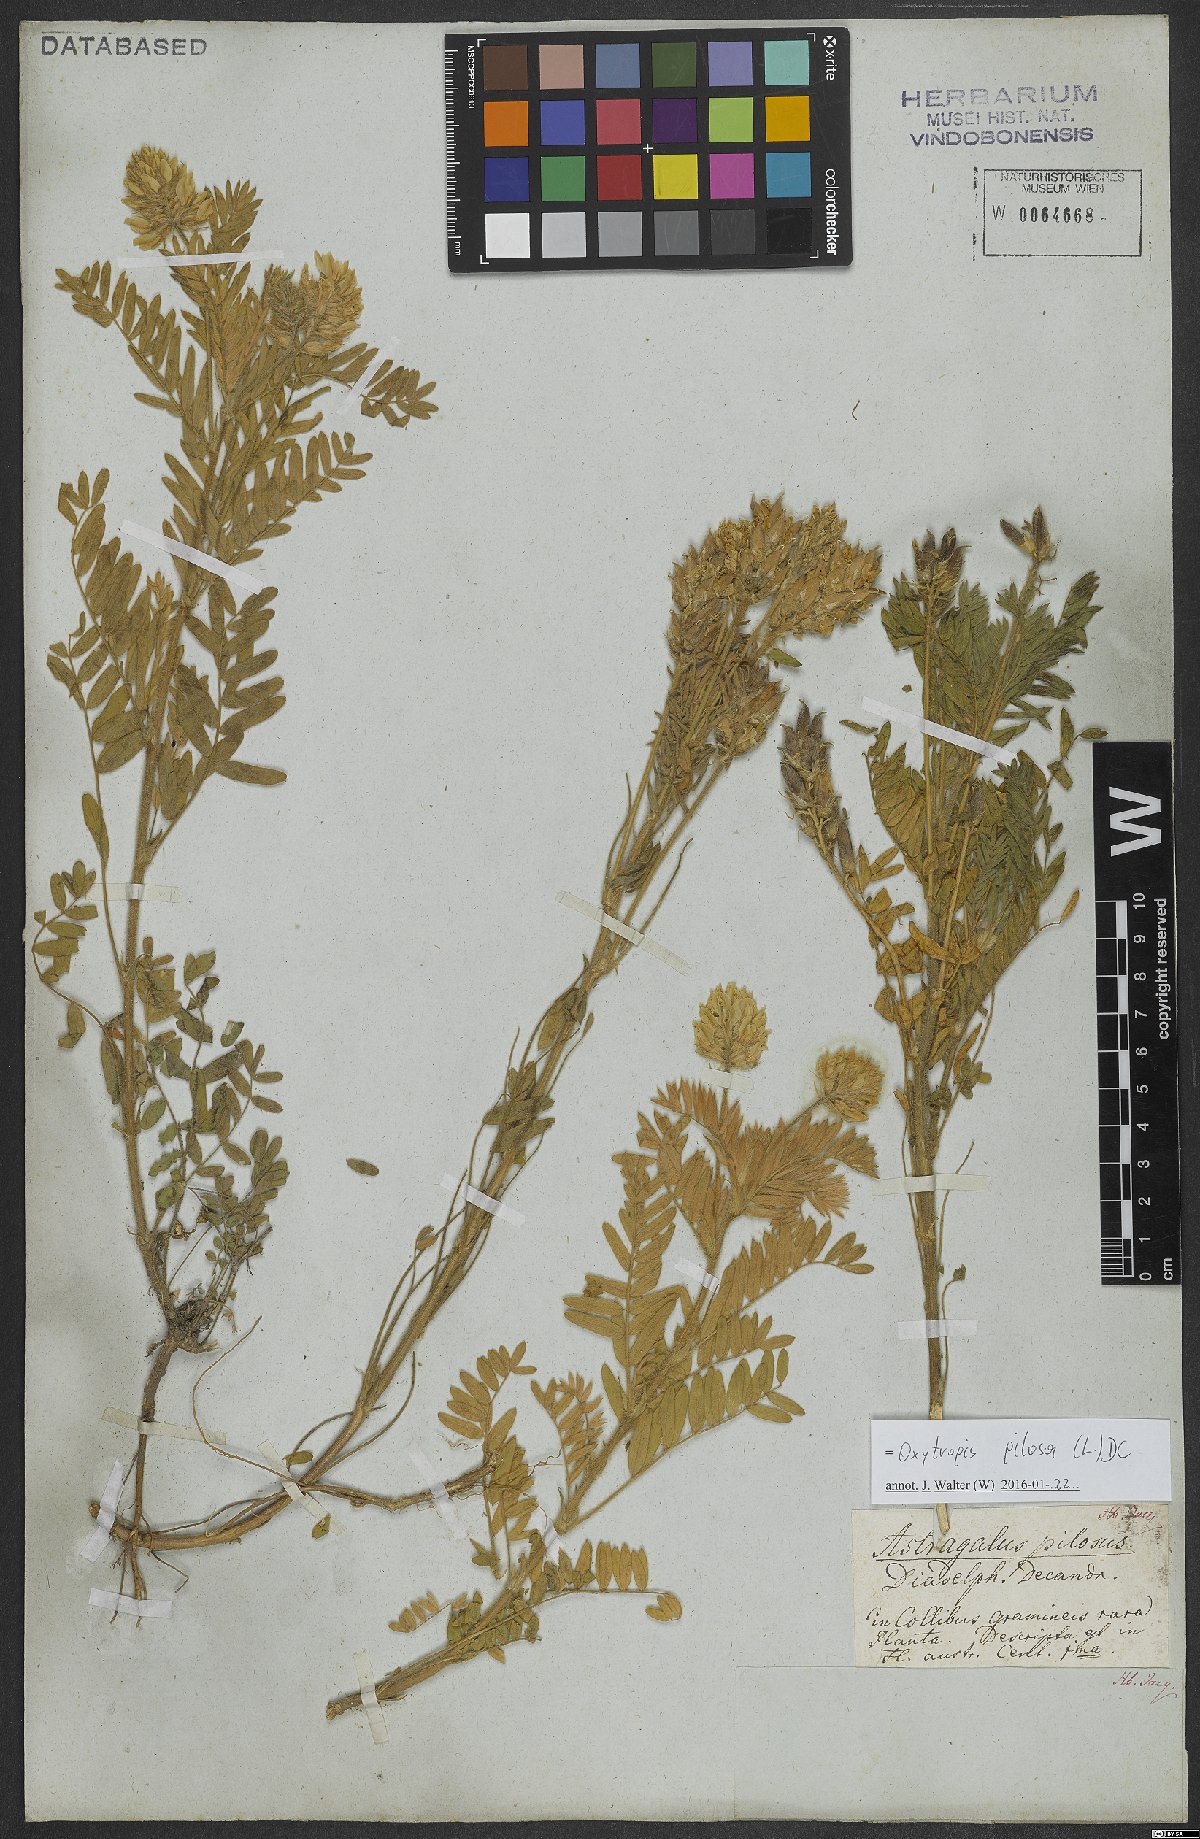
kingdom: Plantae
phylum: Tracheophyta
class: Magnoliopsida
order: Fabales
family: Fabaceae
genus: Oxytropis
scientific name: Oxytropis pilosa
